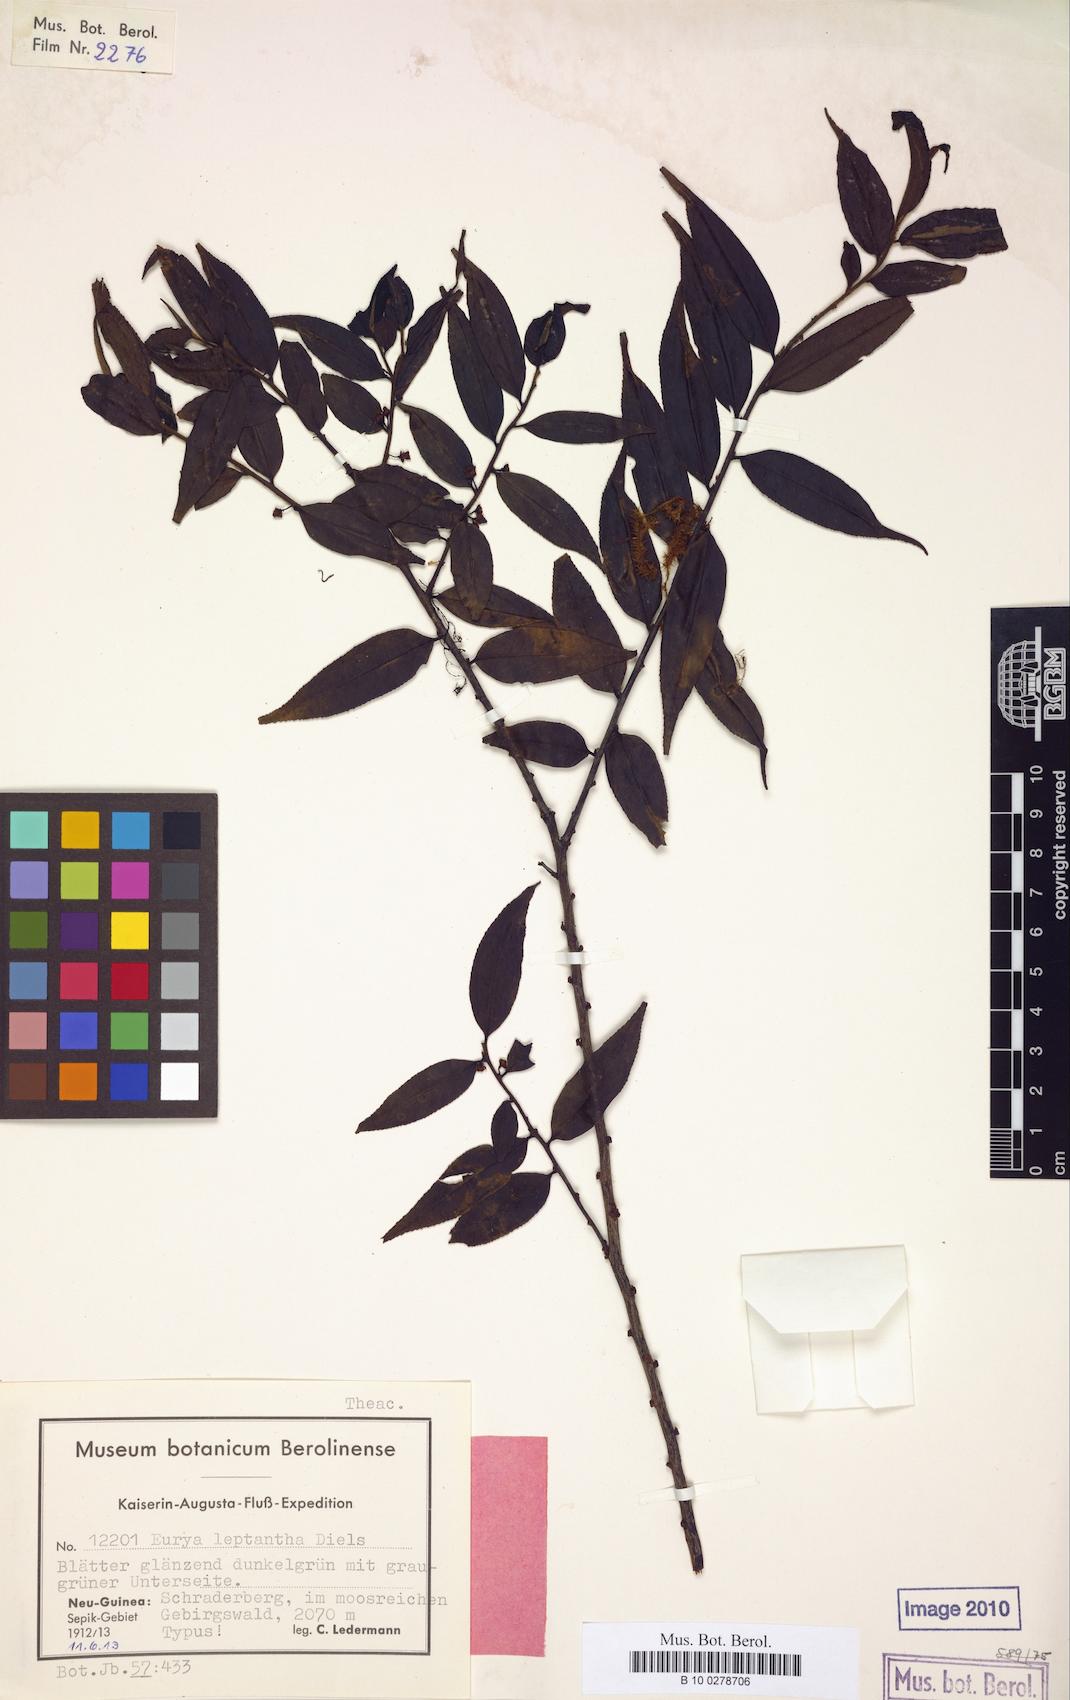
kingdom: Plantae
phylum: Tracheophyta
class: Magnoliopsida
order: Ericales
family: Pentaphylacaceae
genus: Eurya
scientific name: Eurya leptanta
